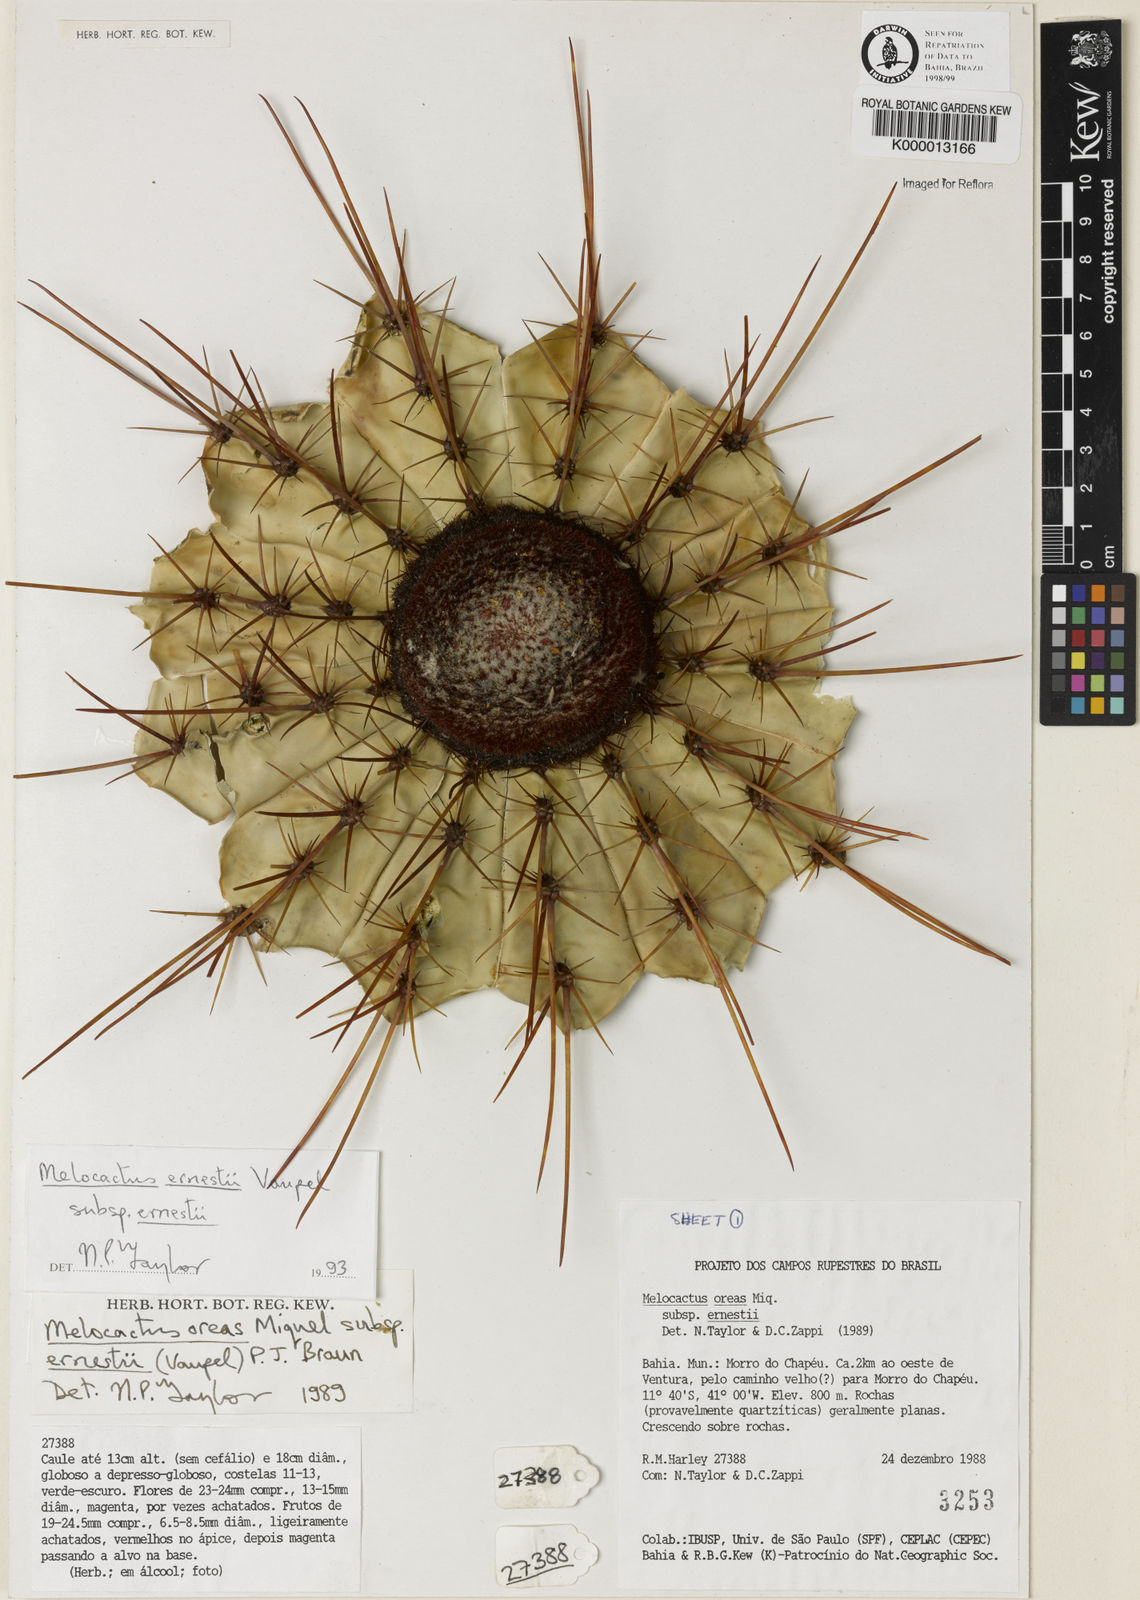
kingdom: Plantae
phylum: Tracheophyta
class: Magnoliopsida
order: Caryophyllales
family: Cactaceae
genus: Melocactus
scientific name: Melocactus ernestii
